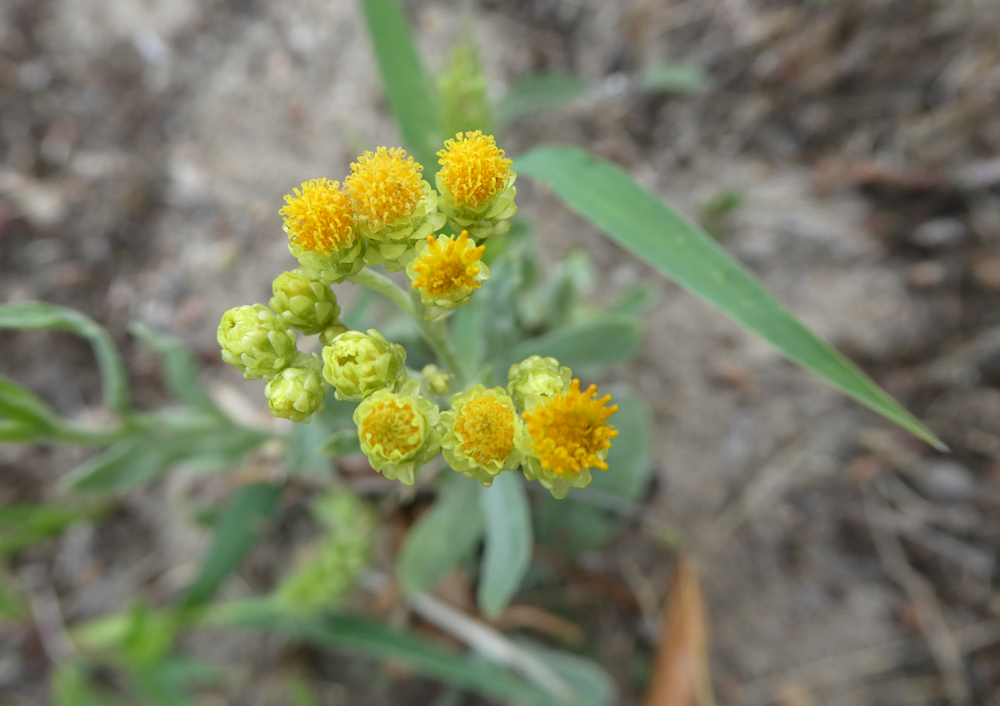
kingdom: Plantae
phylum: Tracheophyta
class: Magnoliopsida
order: Asterales
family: Asteraceae
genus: Helichrysum
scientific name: Helichrysum arenarium
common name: Strawflower
